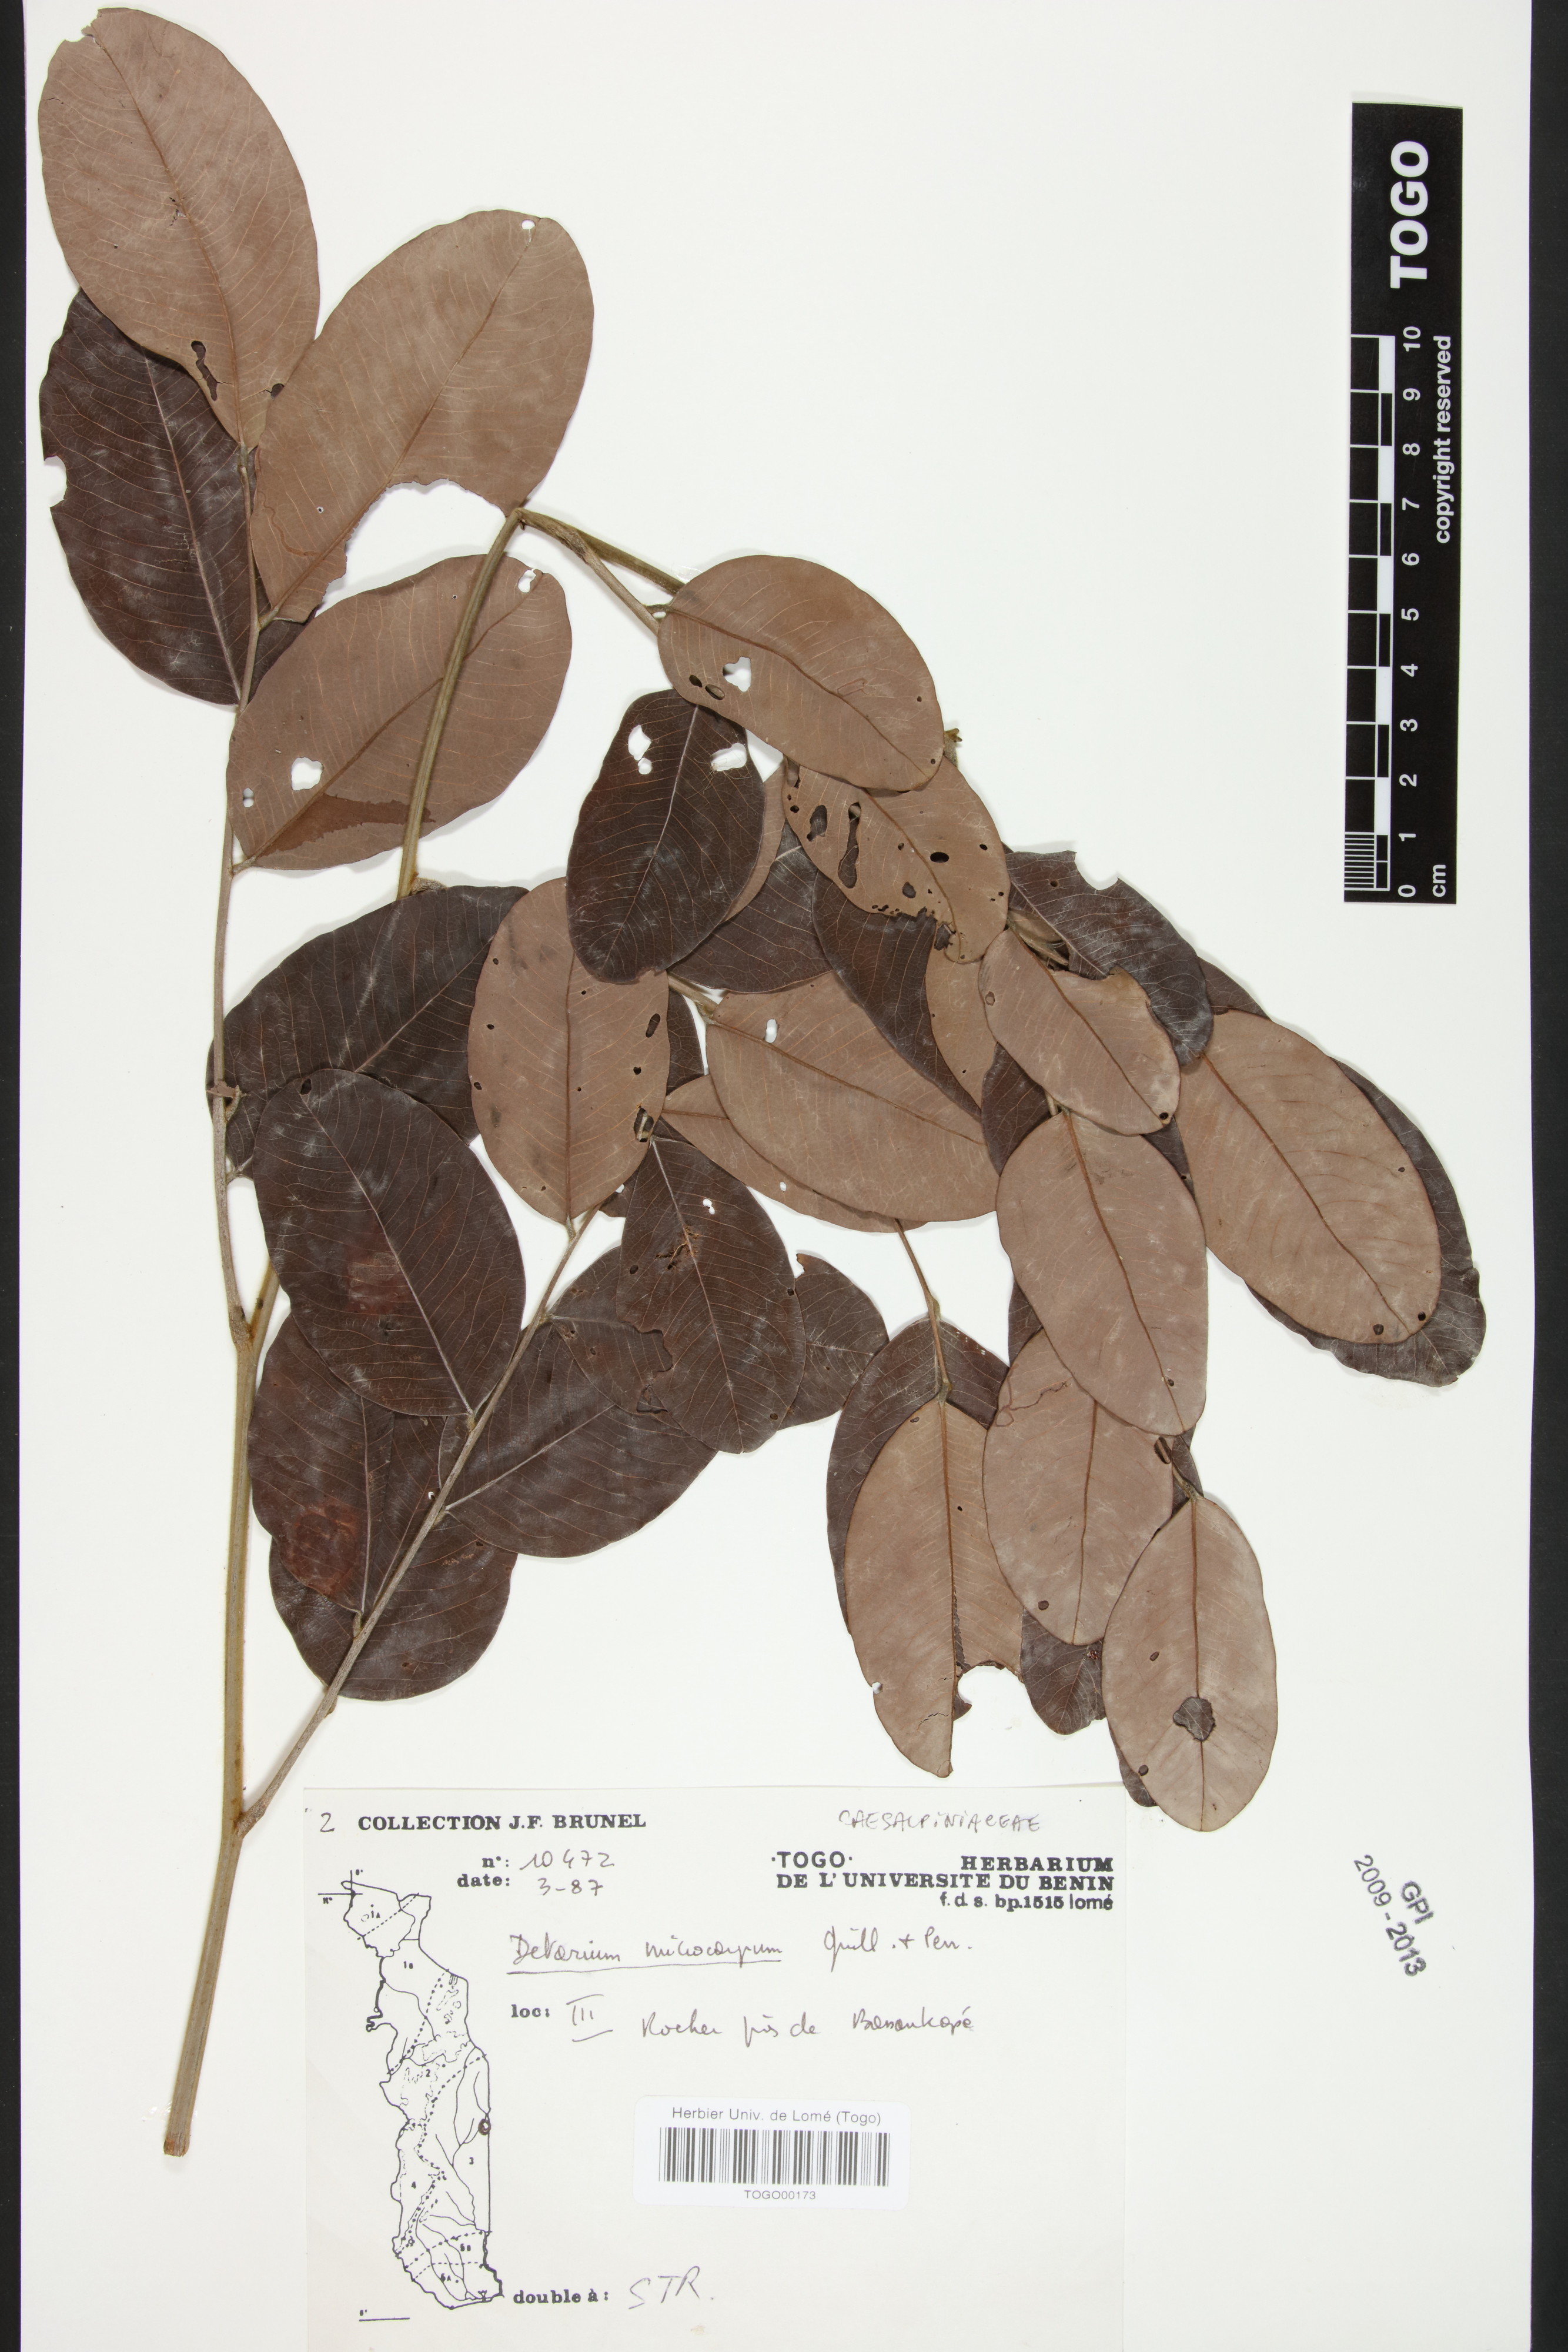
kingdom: Plantae
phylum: Tracheophyta
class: Magnoliopsida
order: Fabales
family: Fabaceae
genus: Detarium
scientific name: Detarium microcarpum
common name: Sweet dattock
